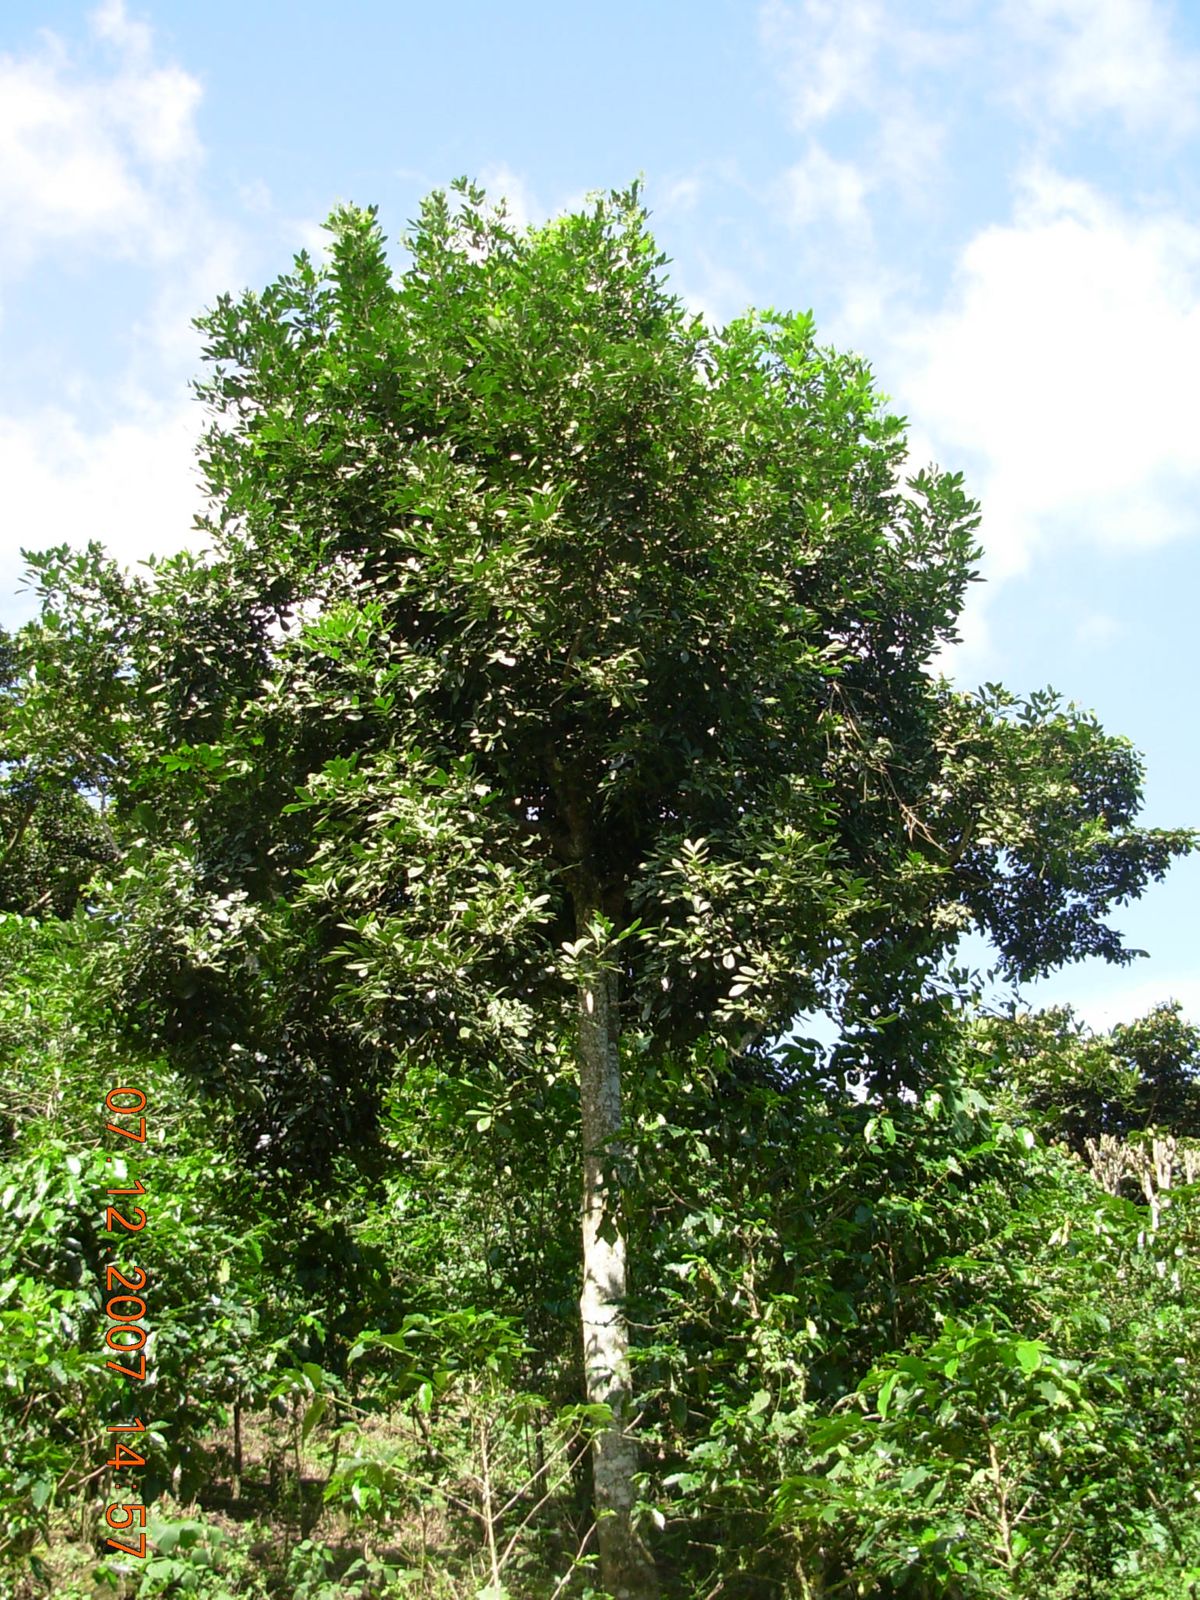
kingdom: Plantae
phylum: Tracheophyta
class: Magnoliopsida
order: Sapindales
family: Meliaceae
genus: Trichilia
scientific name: Trichilia havanensis
